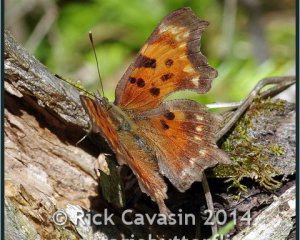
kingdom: Animalia
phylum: Arthropoda
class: Insecta
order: Lepidoptera
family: Nymphalidae
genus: Polygonia
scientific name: Polygonia faunus
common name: Green Comma
